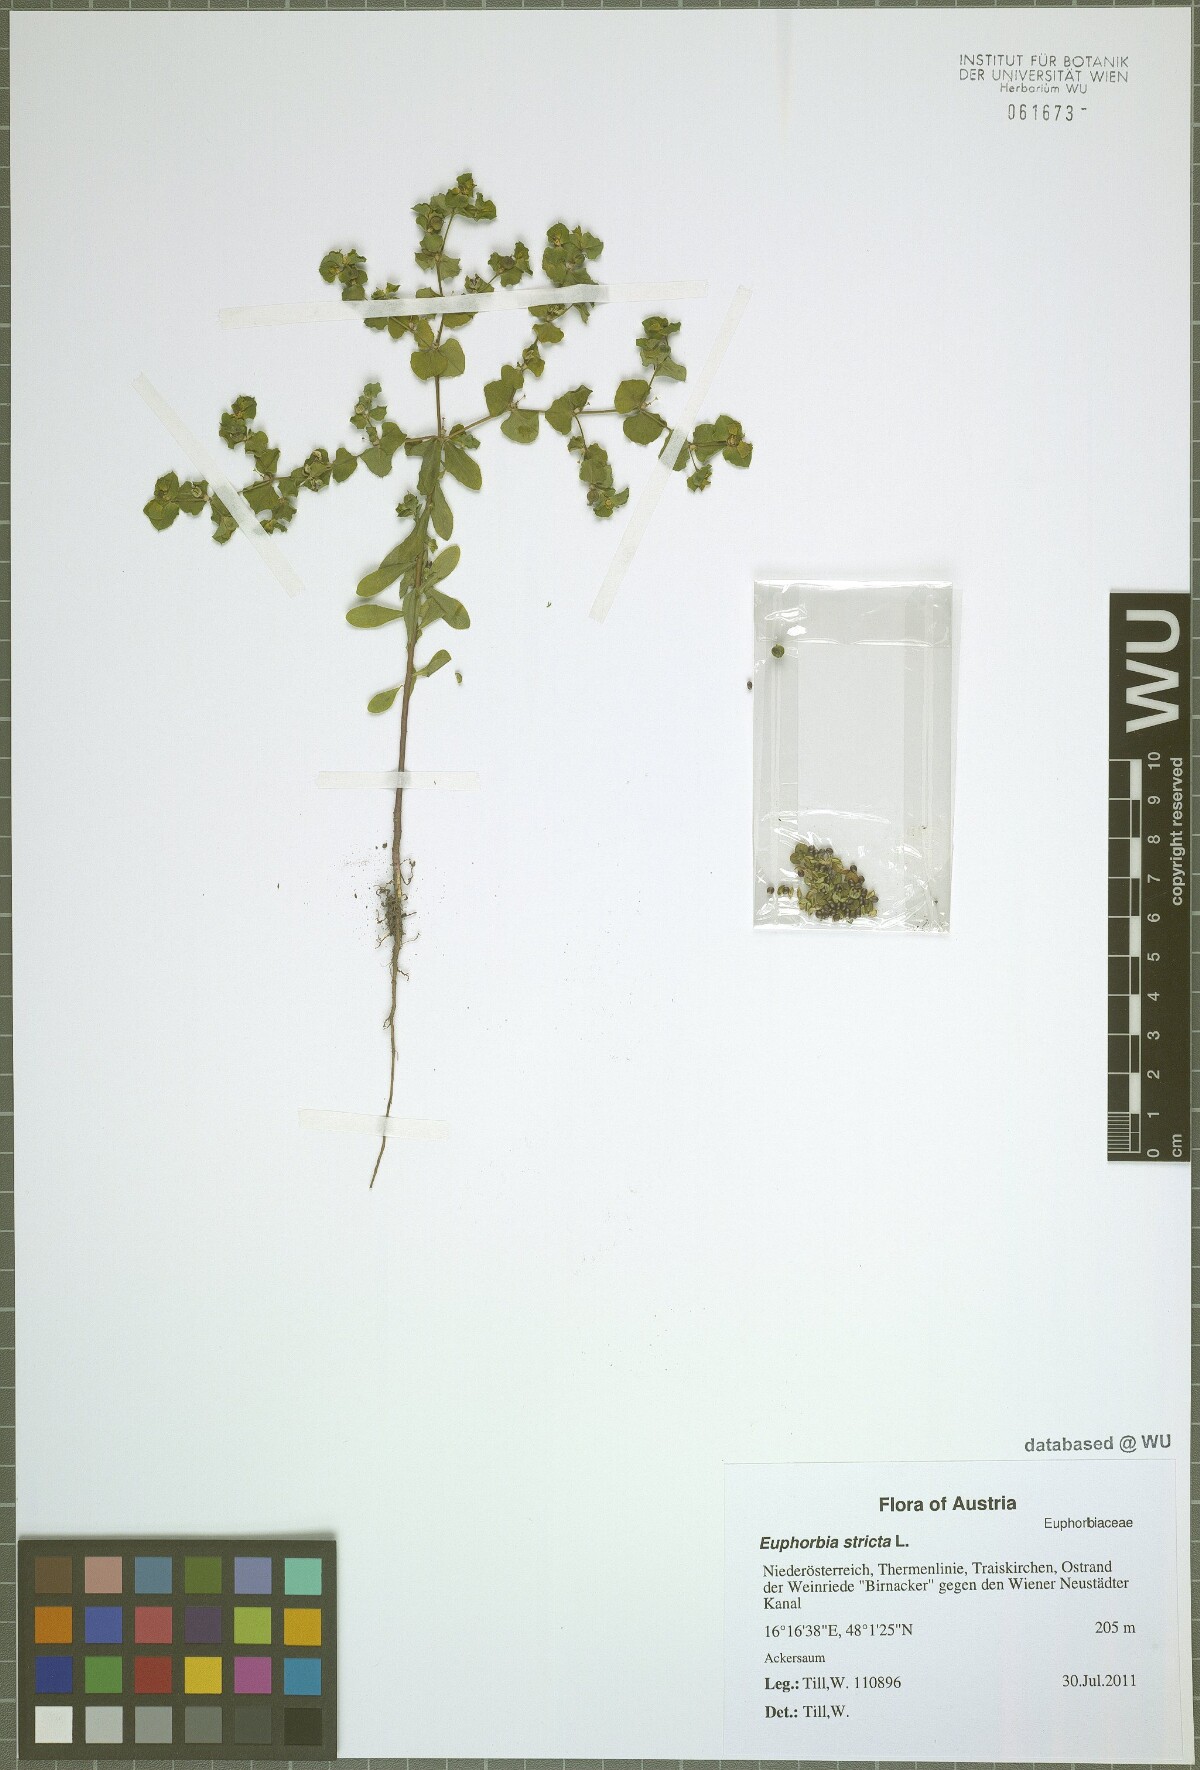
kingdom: Plantae
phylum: Tracheophyta
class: Magnoliopsida
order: Malpighiales
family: Euphorbiaceae
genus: Euphorbia
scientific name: Euphorbia stricta
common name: Upright spurge
